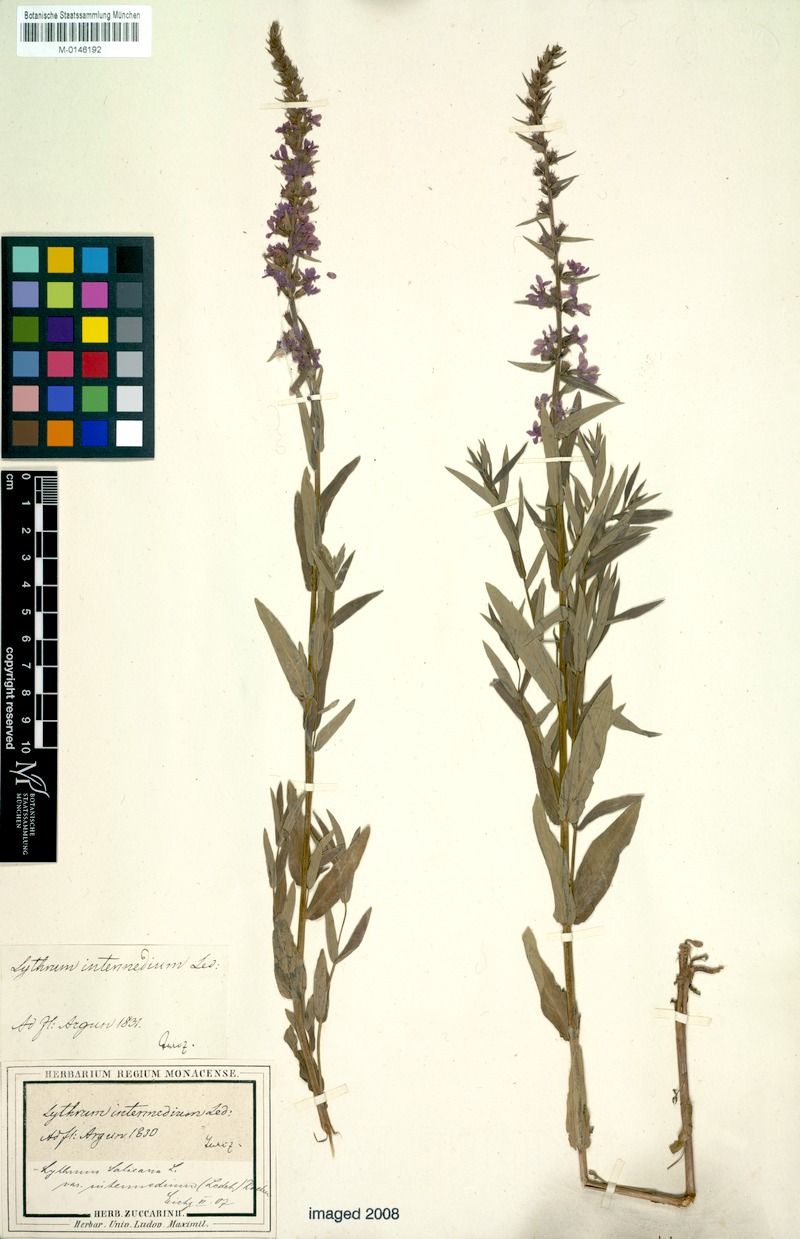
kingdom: Plantae
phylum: Tracheophyta
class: Magnoliopsida
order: Myrtales
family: Lythraceae
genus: Lythrum
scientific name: Lythrum salicaria
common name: Purple loosestrife
